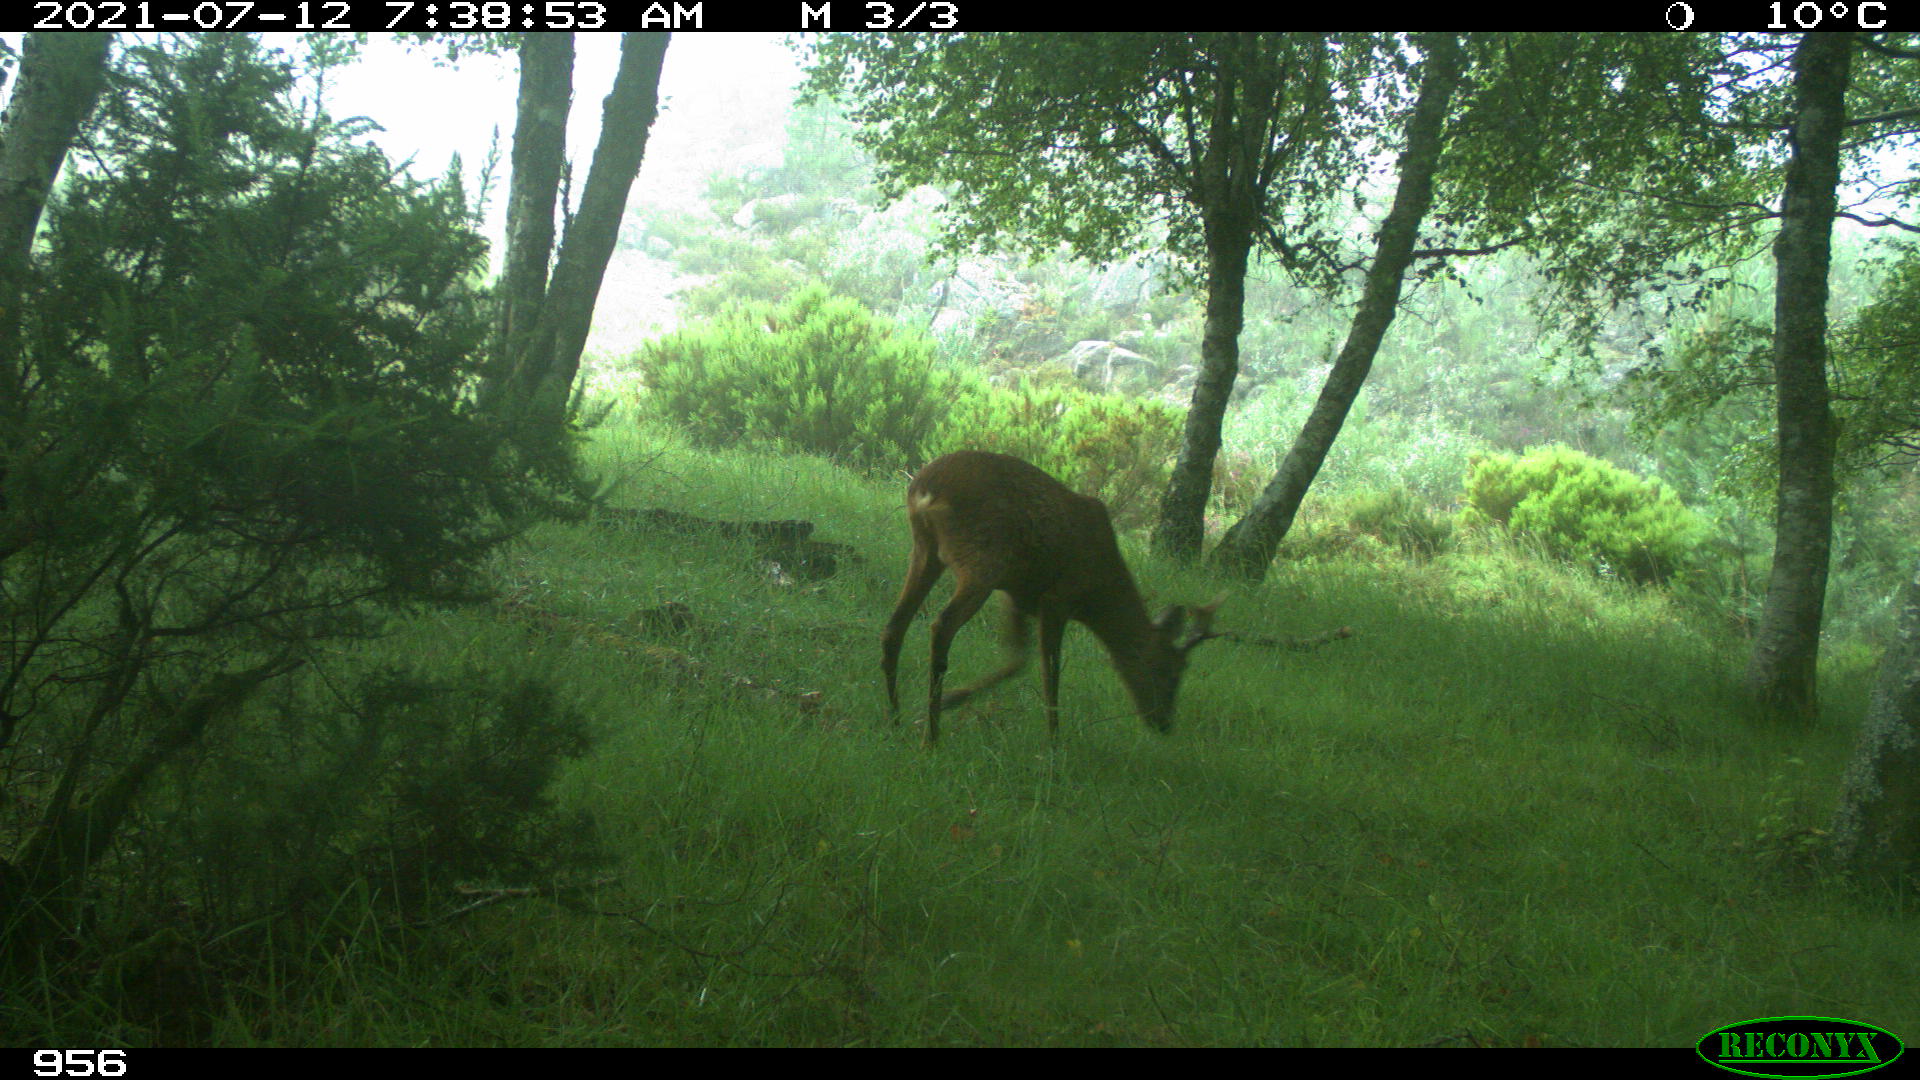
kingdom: Animalia
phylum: Chordata
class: Mammalia
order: Artiodactyla
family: Cervidae
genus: Capreolus
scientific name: Capreolus capreolus
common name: Western roe deer
